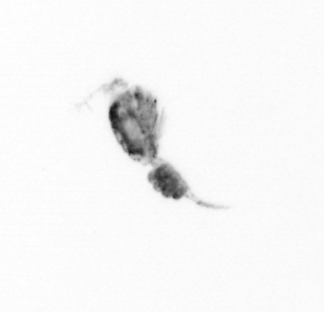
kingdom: Animalia
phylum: Arthropoda
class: Copepoda
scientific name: Copepoda
